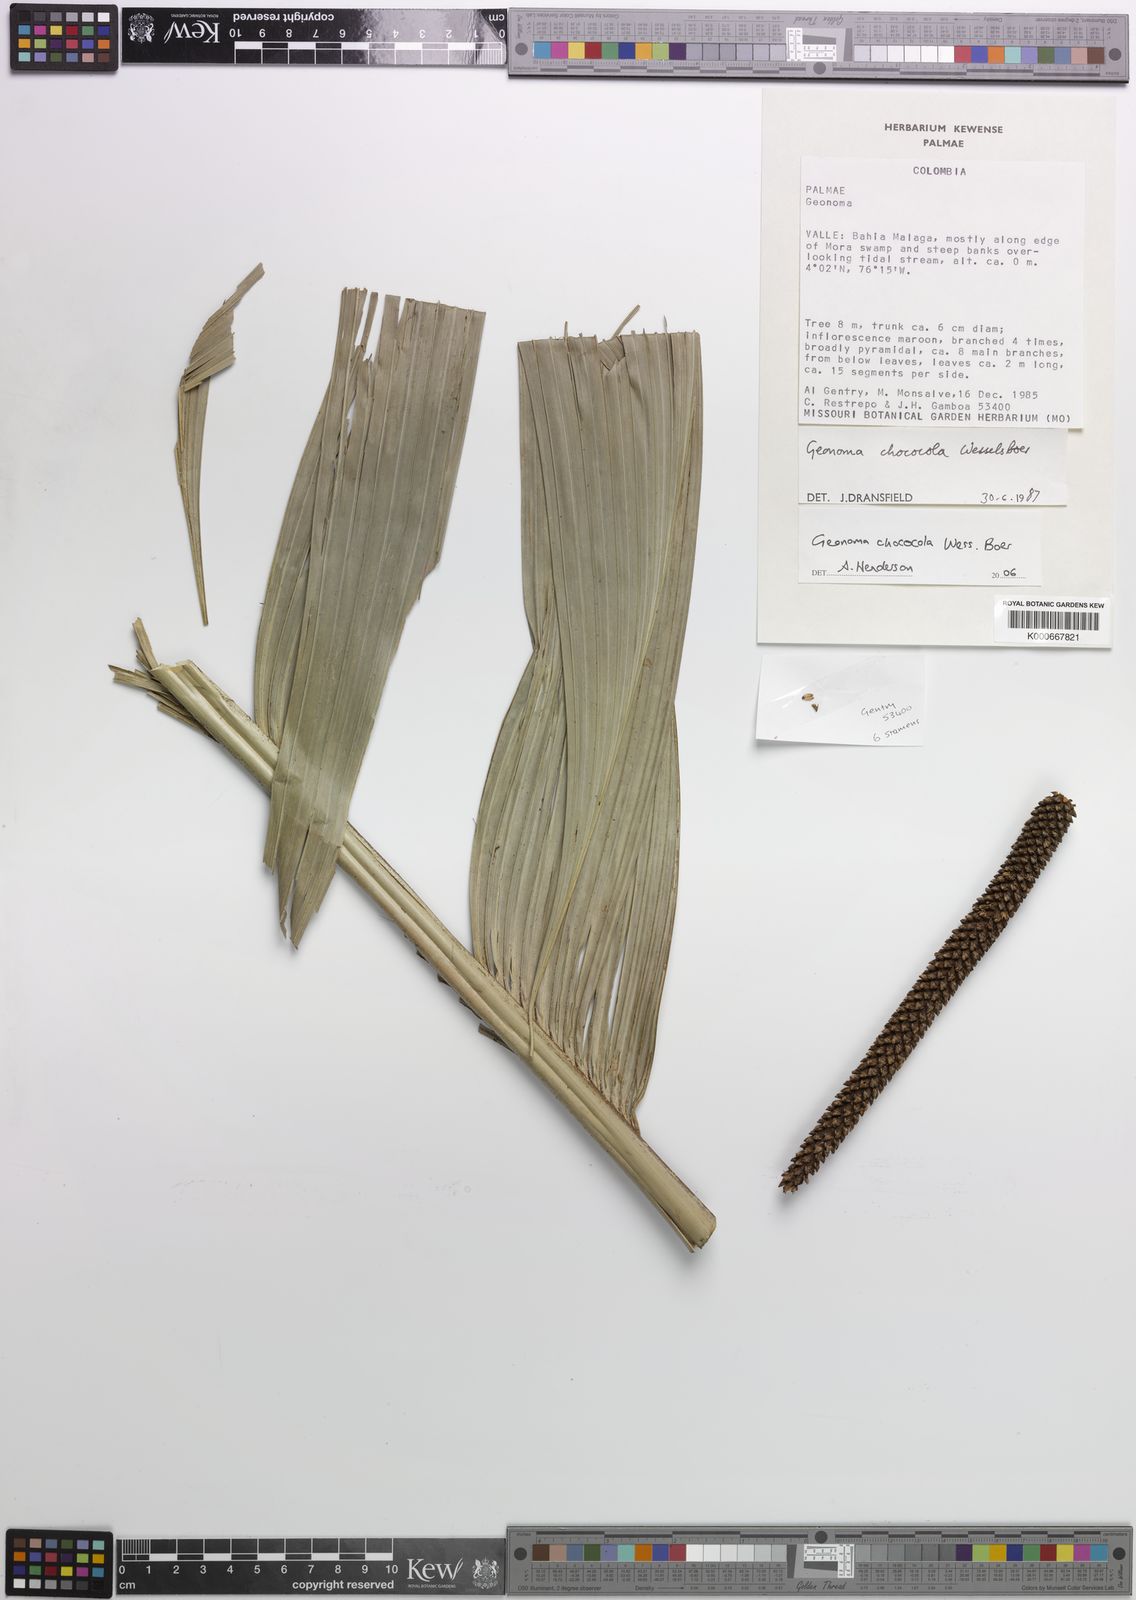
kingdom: Plantae
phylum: Tracheophyta
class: Liliopsida
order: Arecales
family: Arecaceae
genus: Geonoma
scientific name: Geonoma chococola
